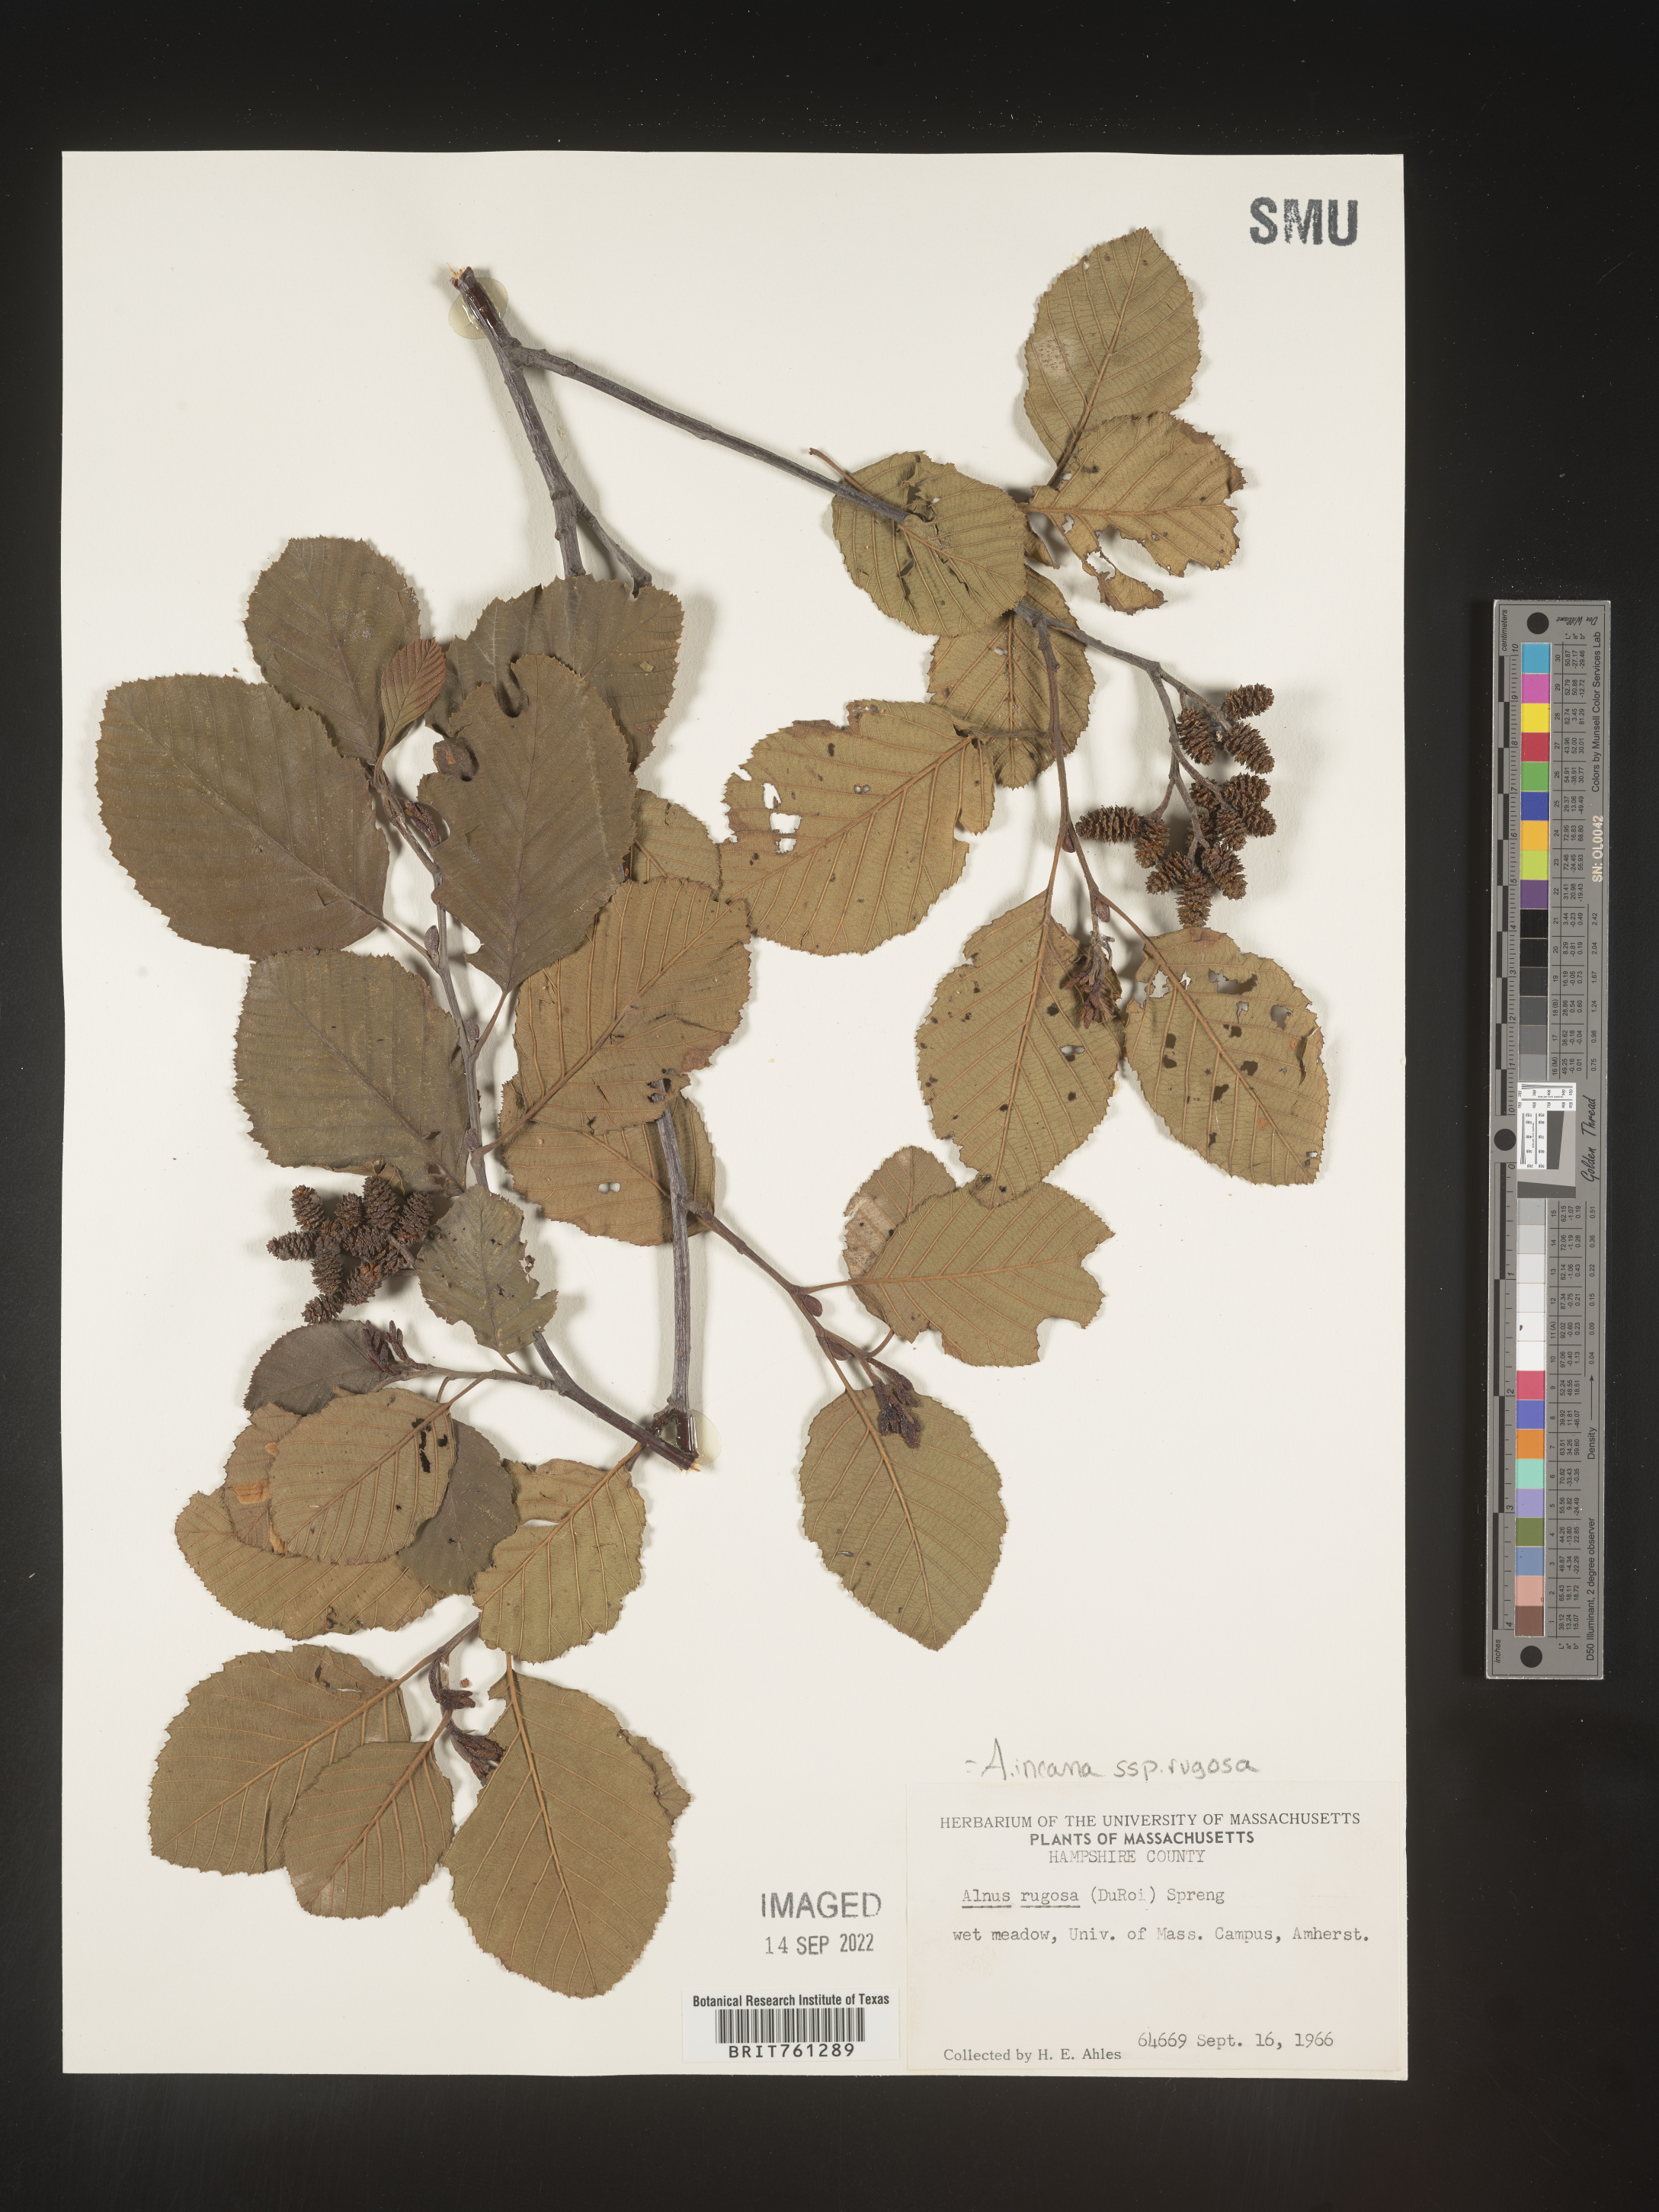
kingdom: Plantae
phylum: Tracheophyta
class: Magnoliopsida
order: Fagales
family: Betulaceae
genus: Alnus
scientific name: Alnus incana
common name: Grey alder
